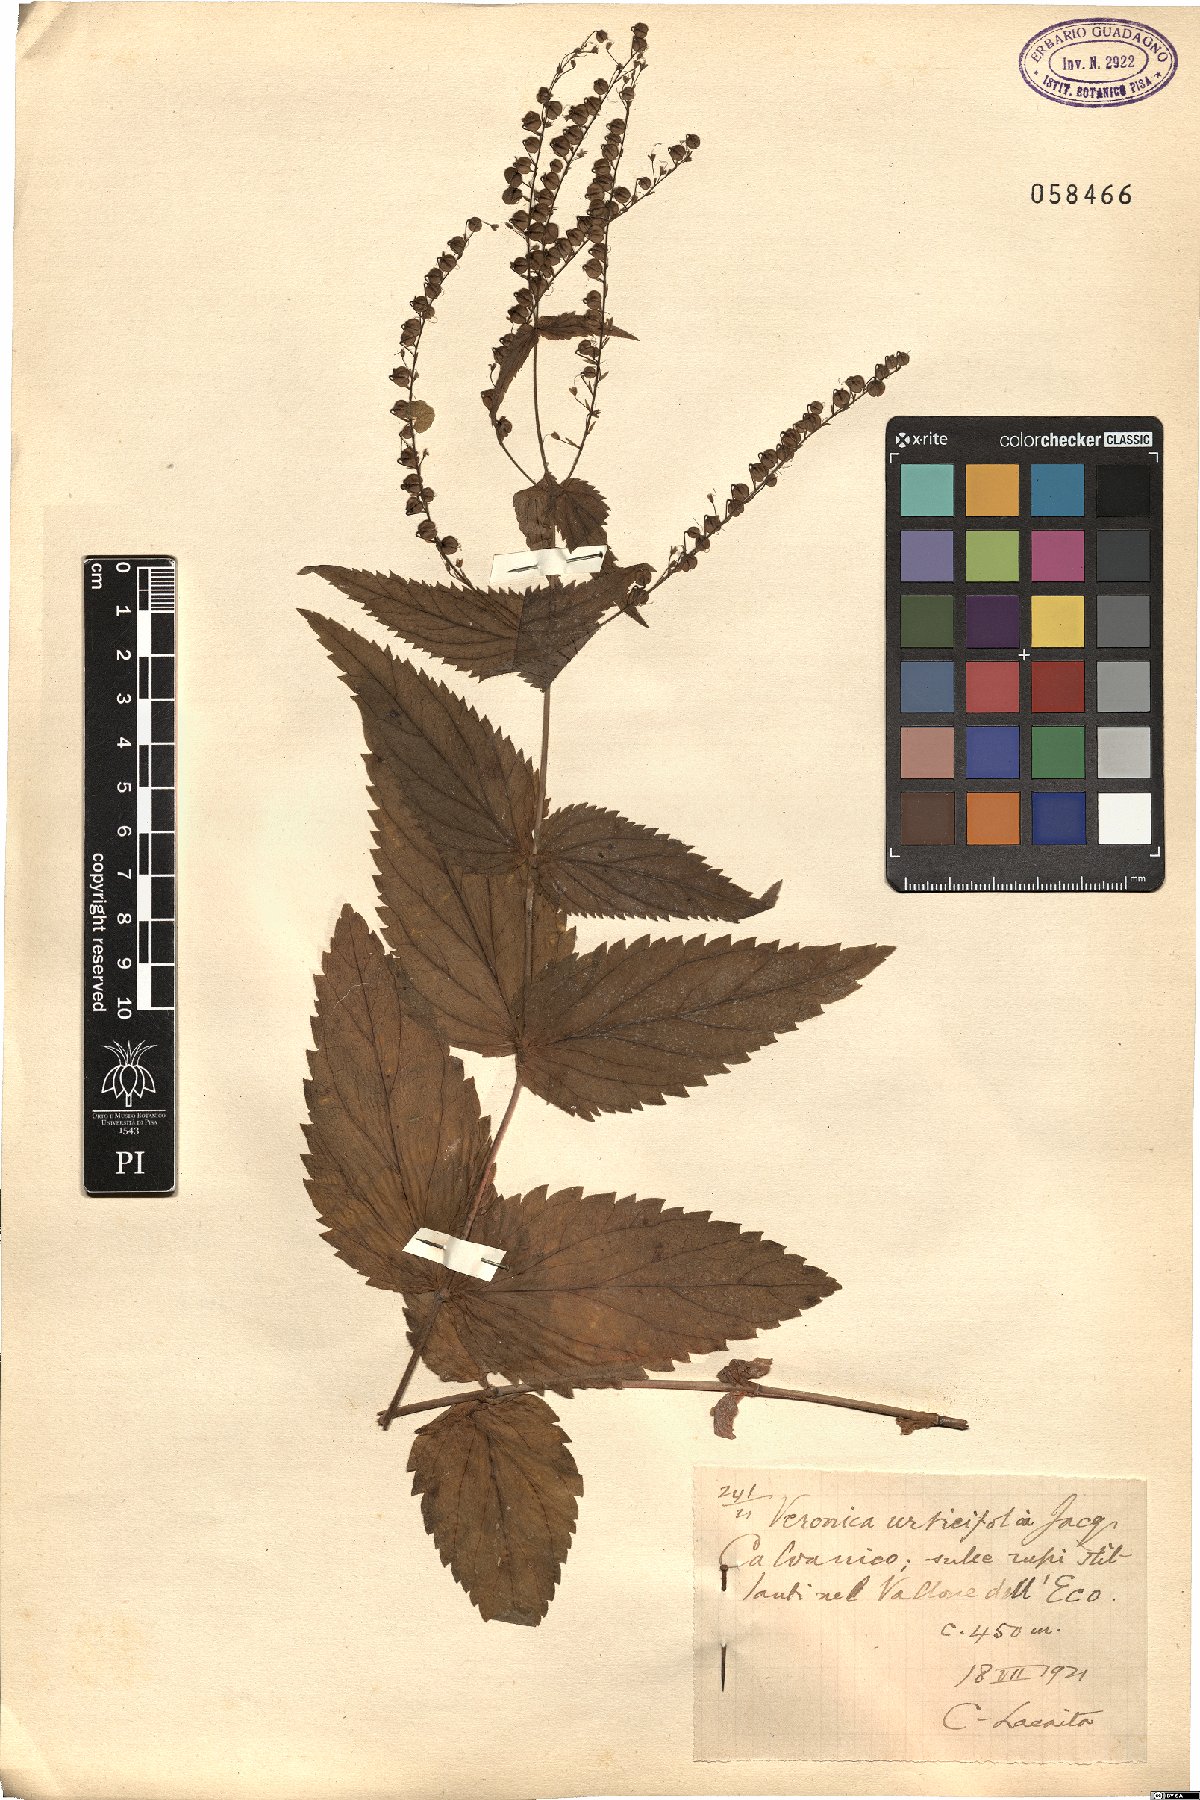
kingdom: Plantae
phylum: Tracheophyta
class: Magnoliopsida
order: Lamiales
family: Plantaginaceae
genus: Veronica
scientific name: Veronica urticifolia
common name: Nettle-leaf speedwell
